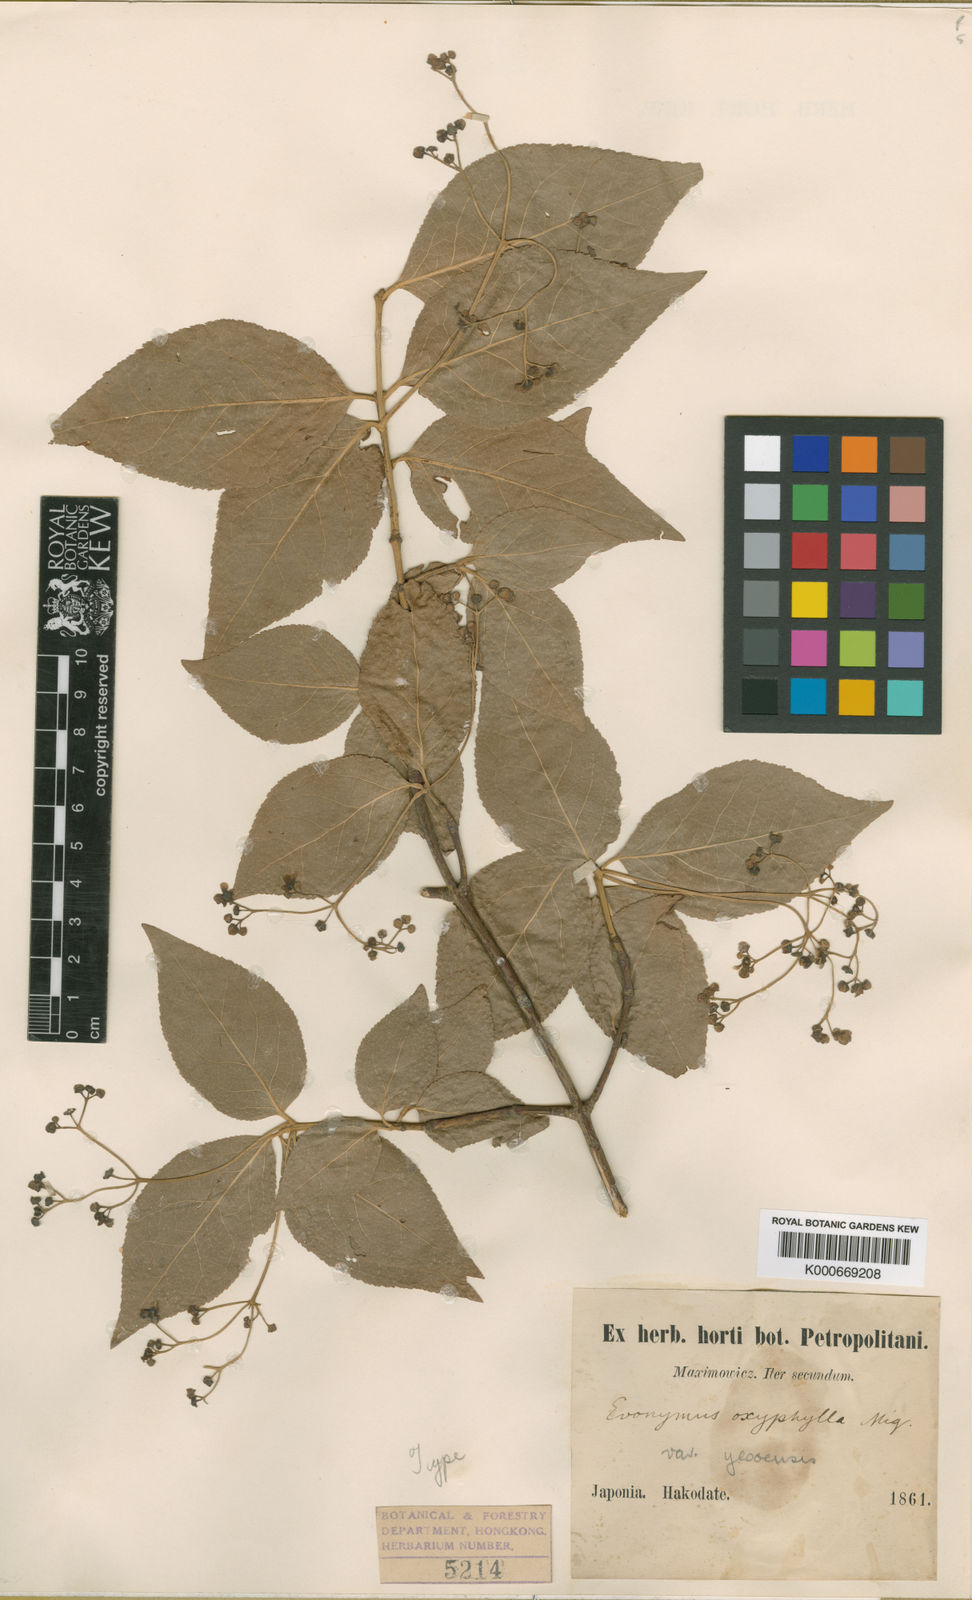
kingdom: Plantae
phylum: Tracheophyta
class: Magnoliopsida
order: Celastrales
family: Celastraceae
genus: Euonymus
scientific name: Euonymus oxyphyllus
